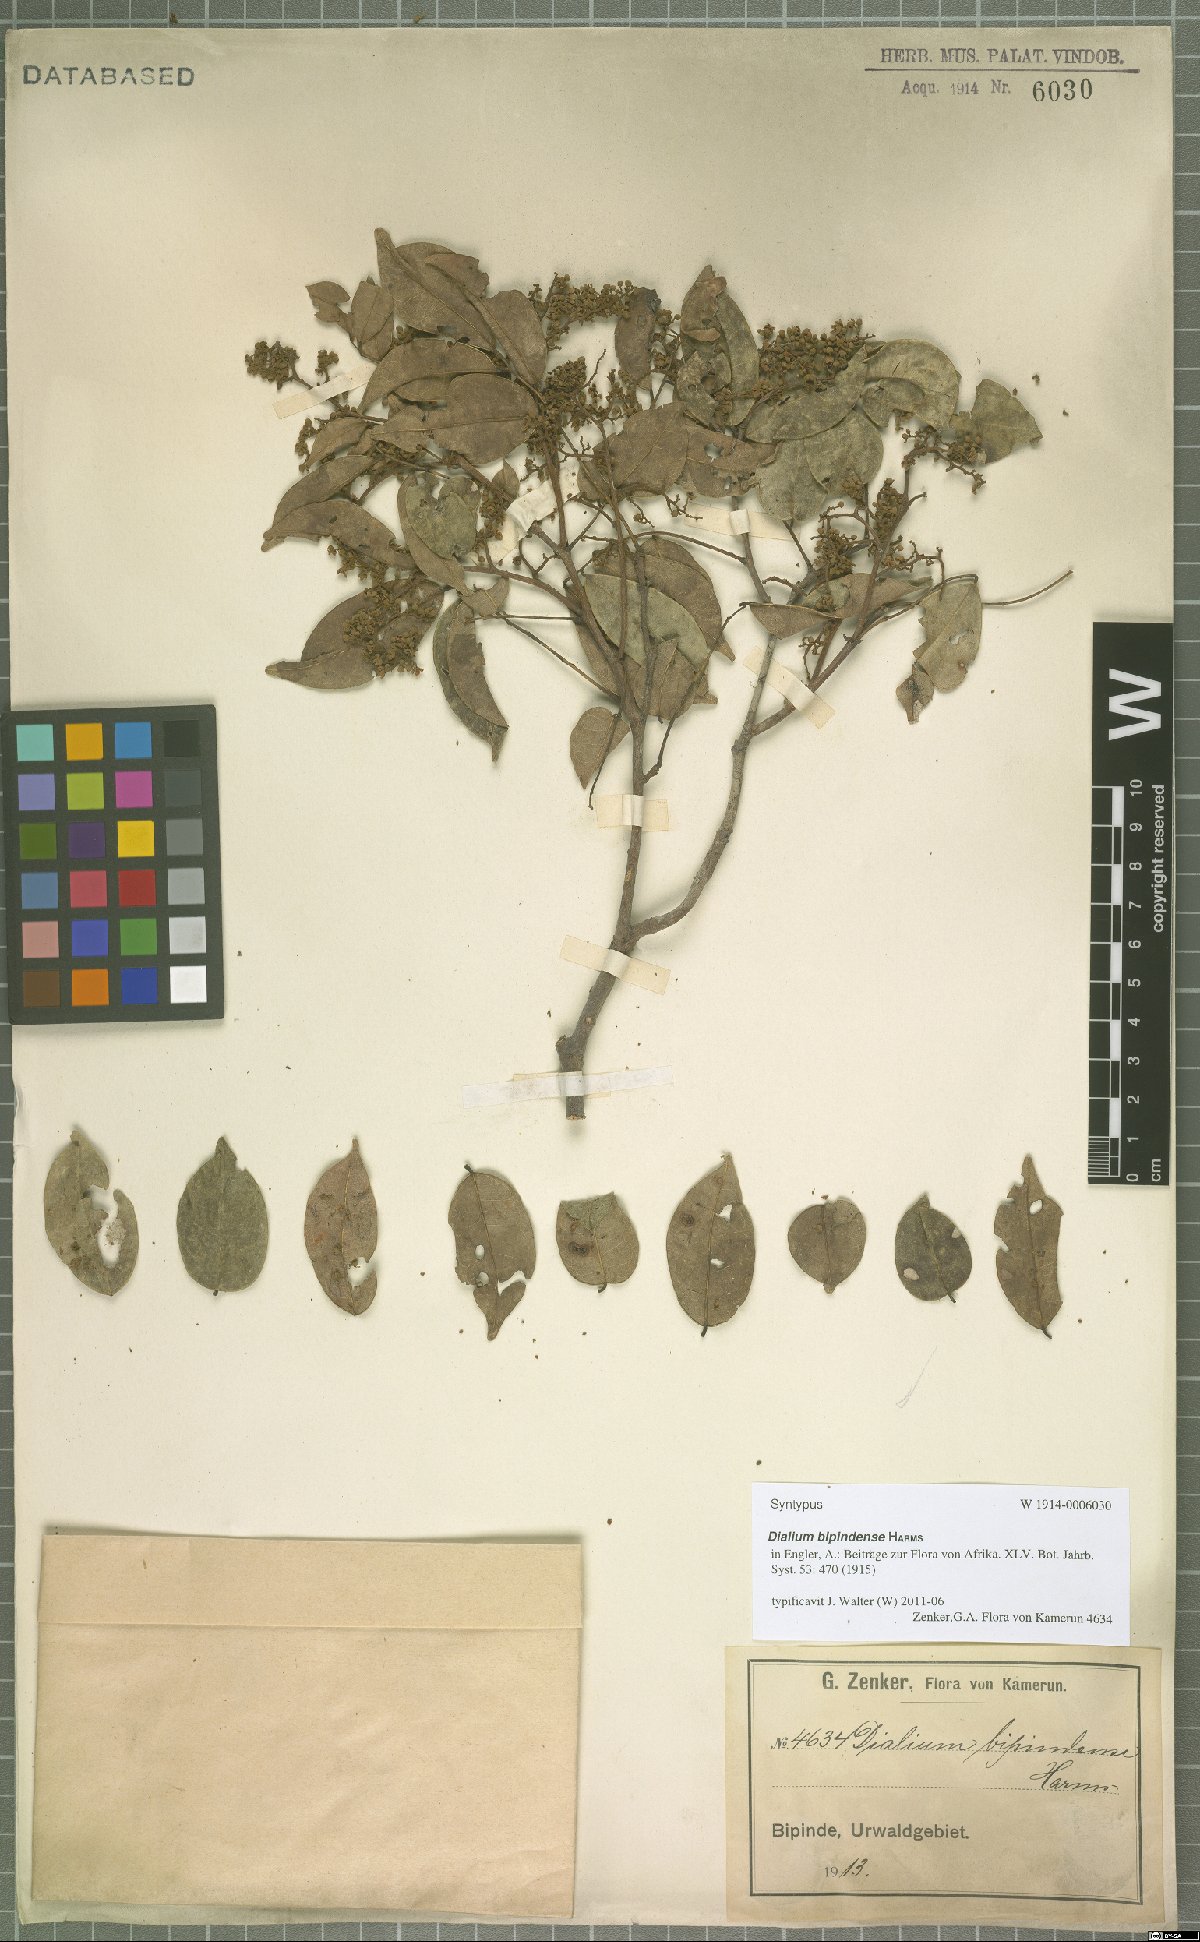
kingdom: Plantae
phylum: Tracheophyta
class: Magnoliopsida
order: Fabales
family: Fabaceae
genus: Dialium
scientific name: Dialium bipindense
